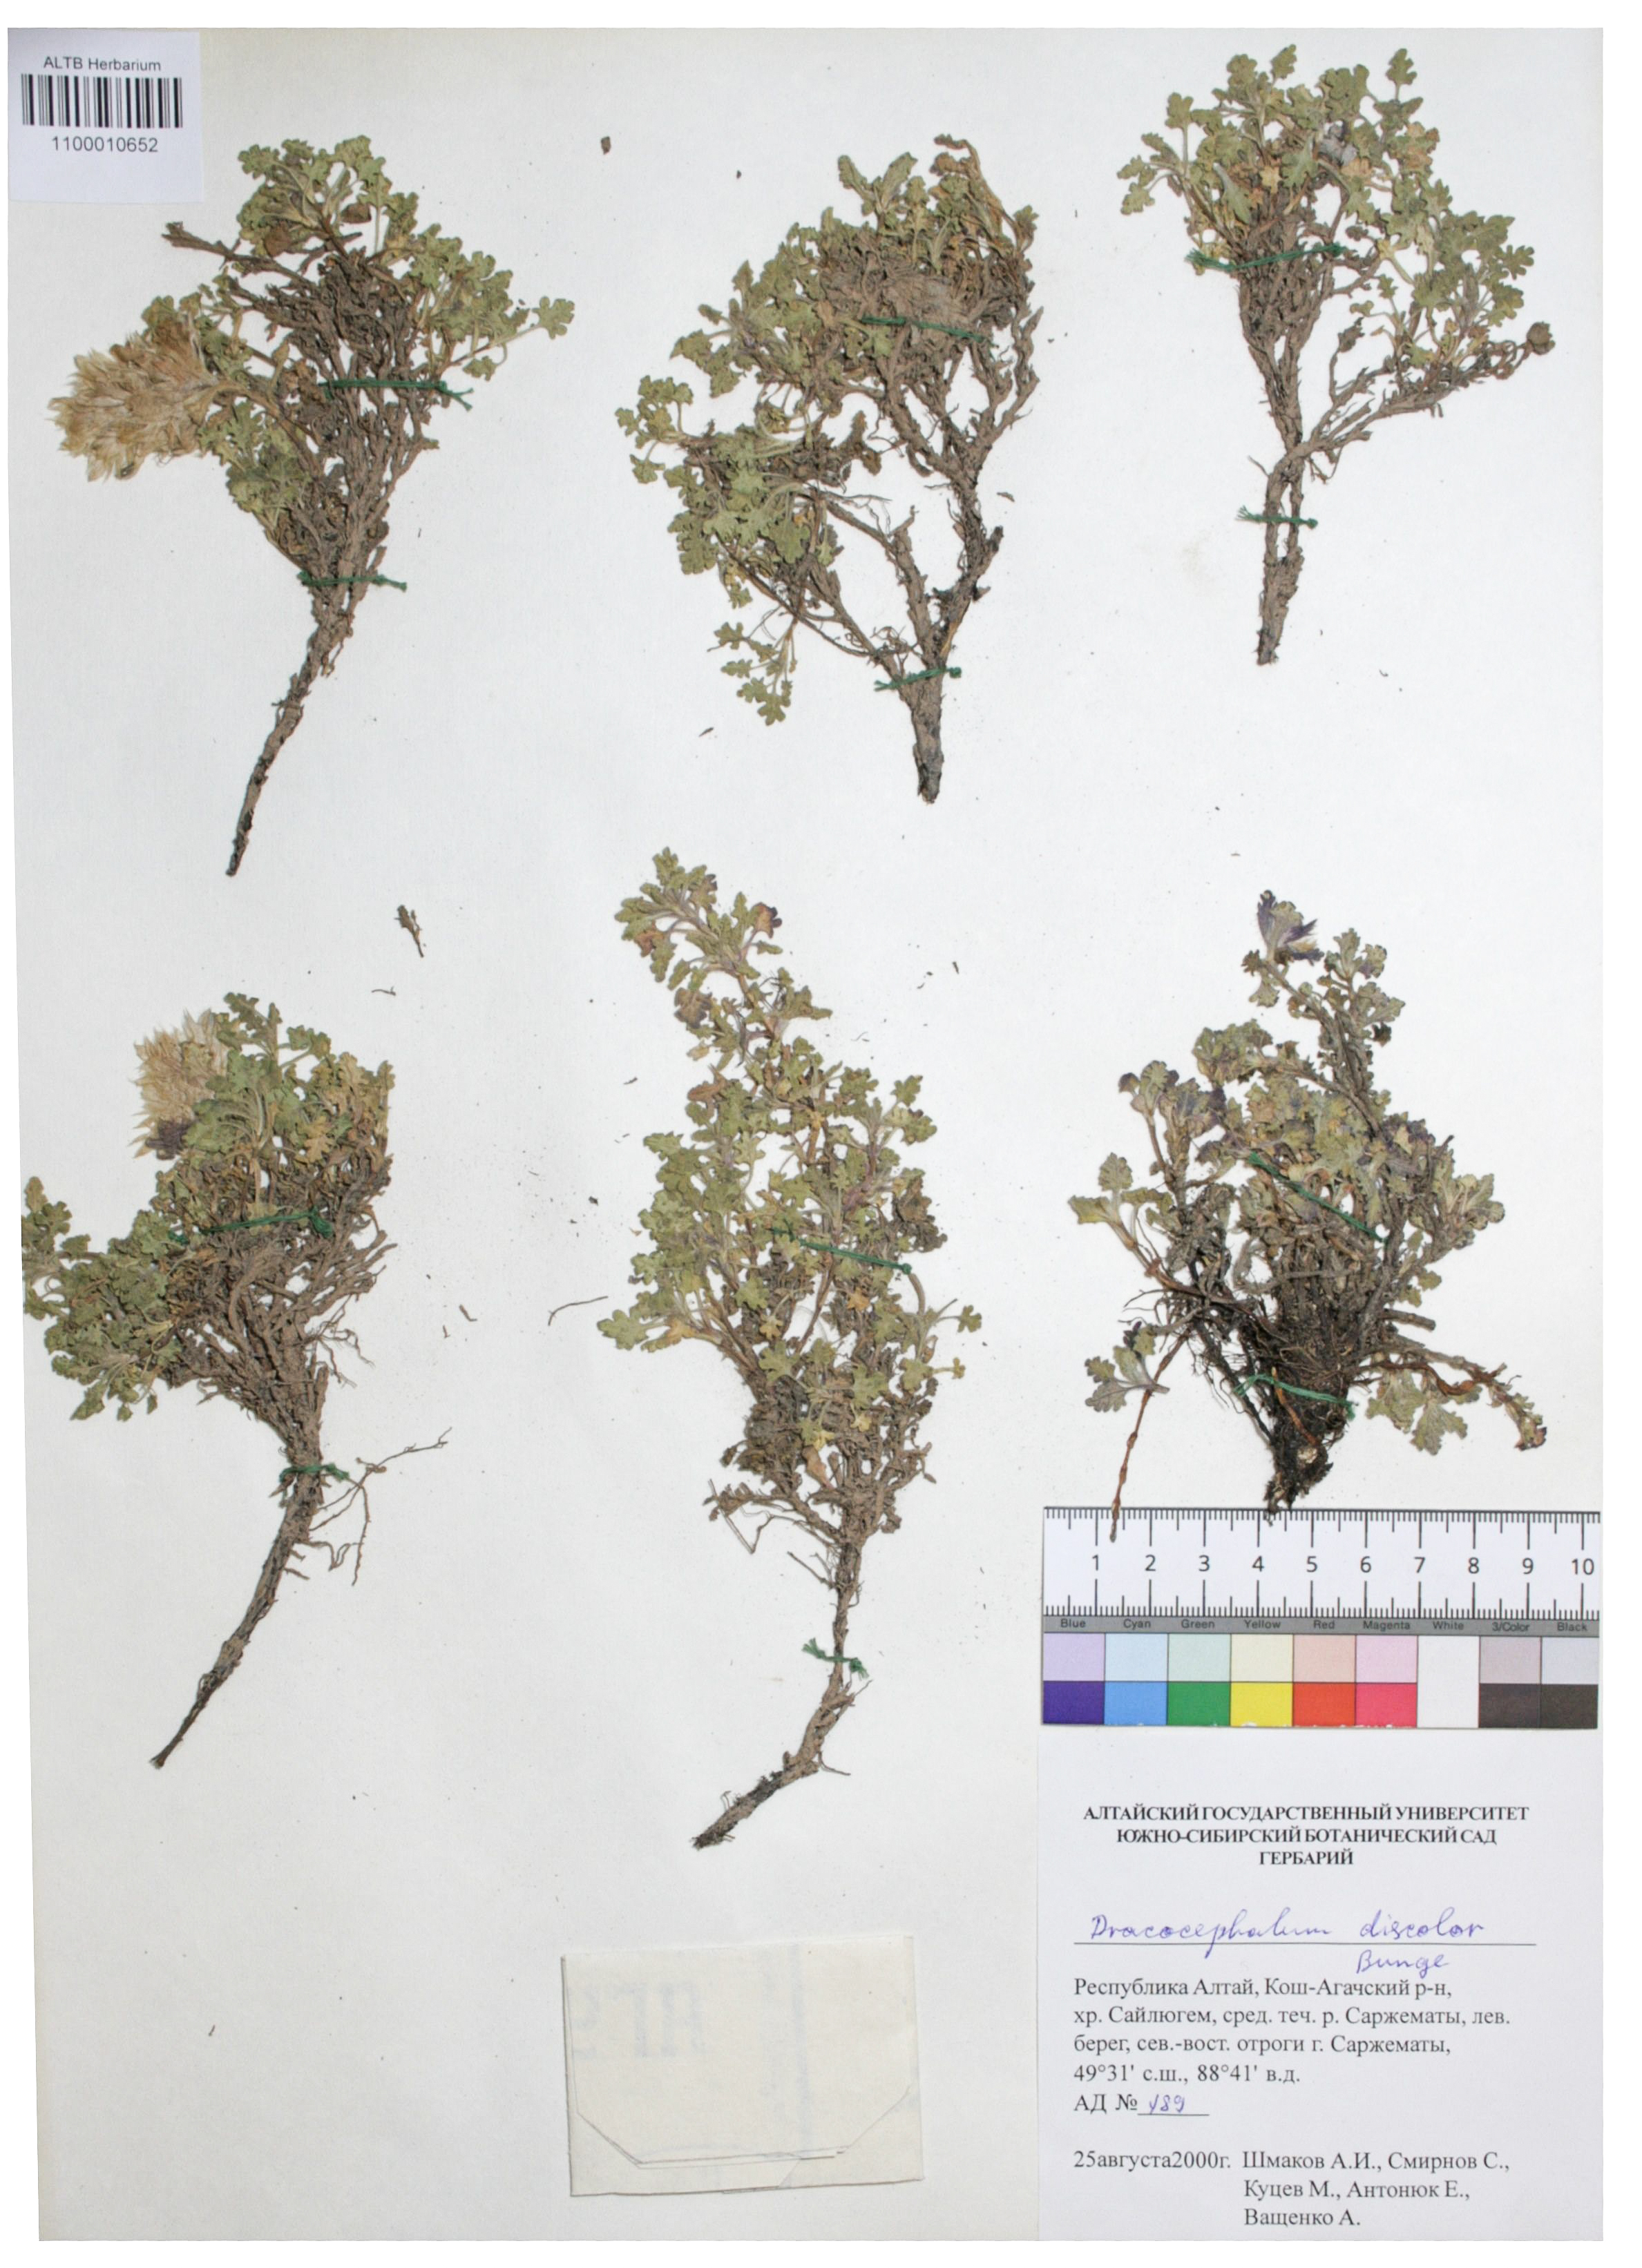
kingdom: Plantae
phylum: Tracheophyta
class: Magnoliopsida
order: Lamiales
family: Lamiaceae
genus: Dracocephalum
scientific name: Dracocephalum discolor
